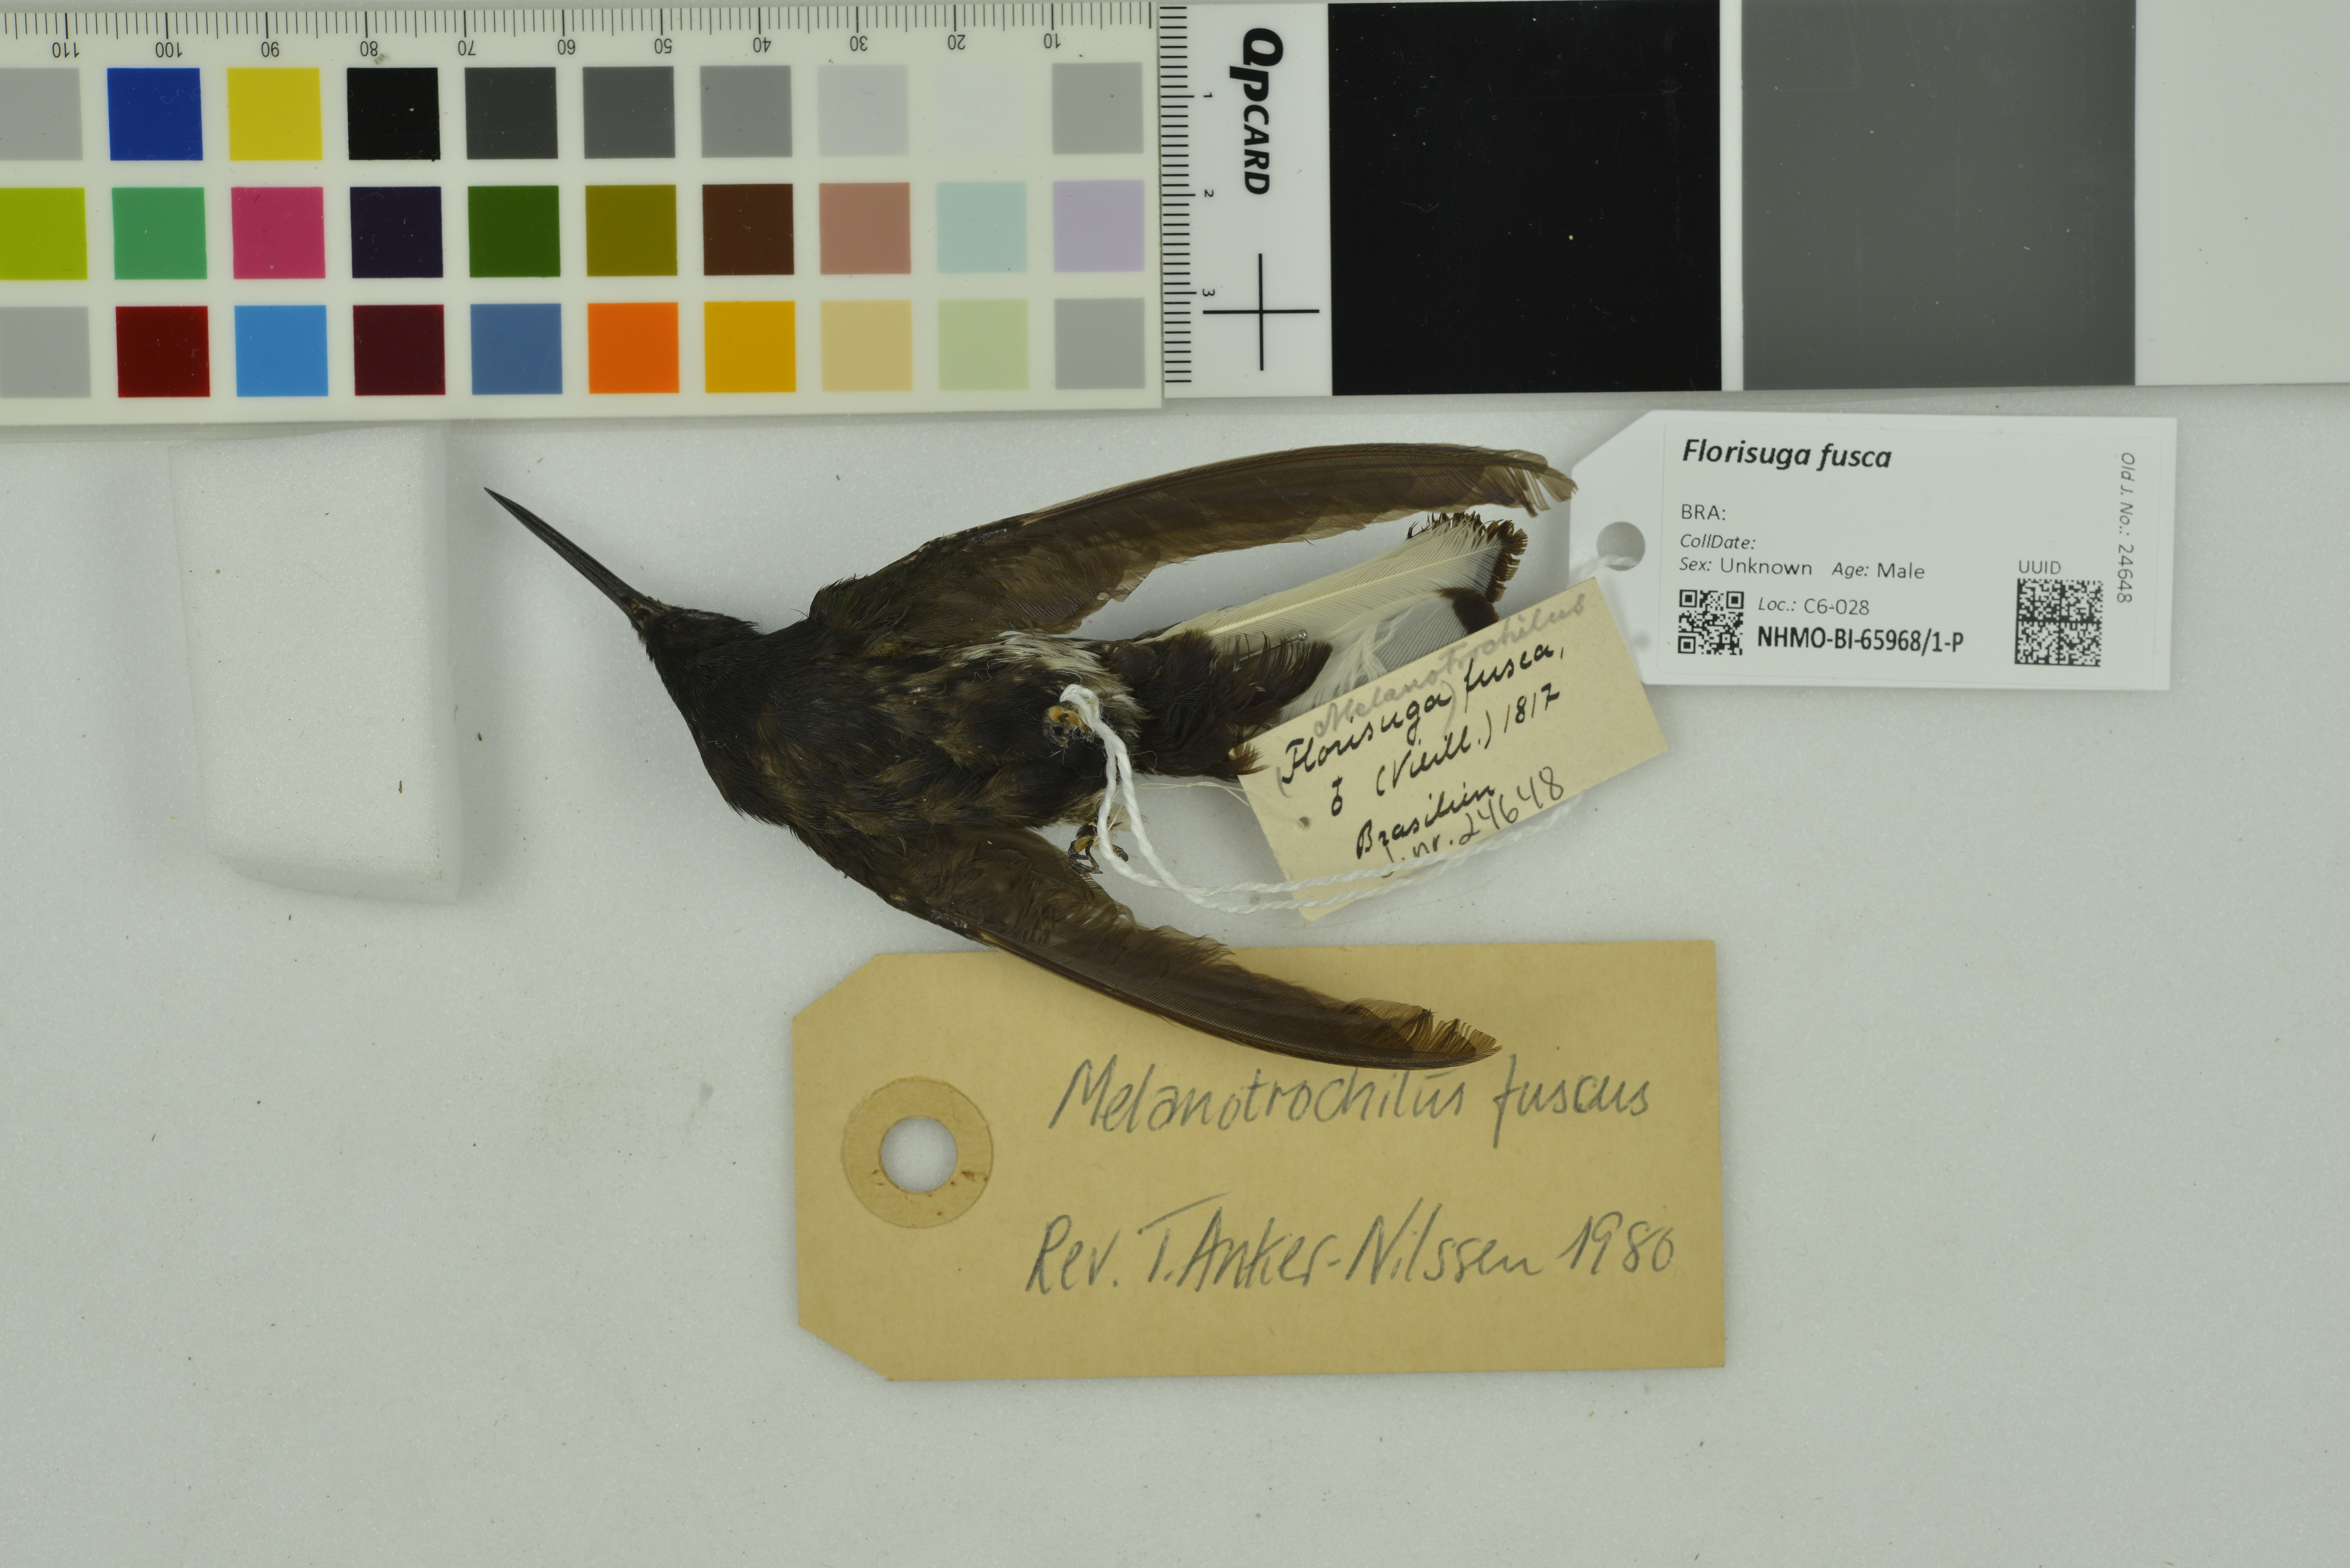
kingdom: Animalia
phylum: Chordata
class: Aves
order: Apodiformes
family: Trochilidae
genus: Florisuga
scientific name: Florisuga fusca
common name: Black jacobin
